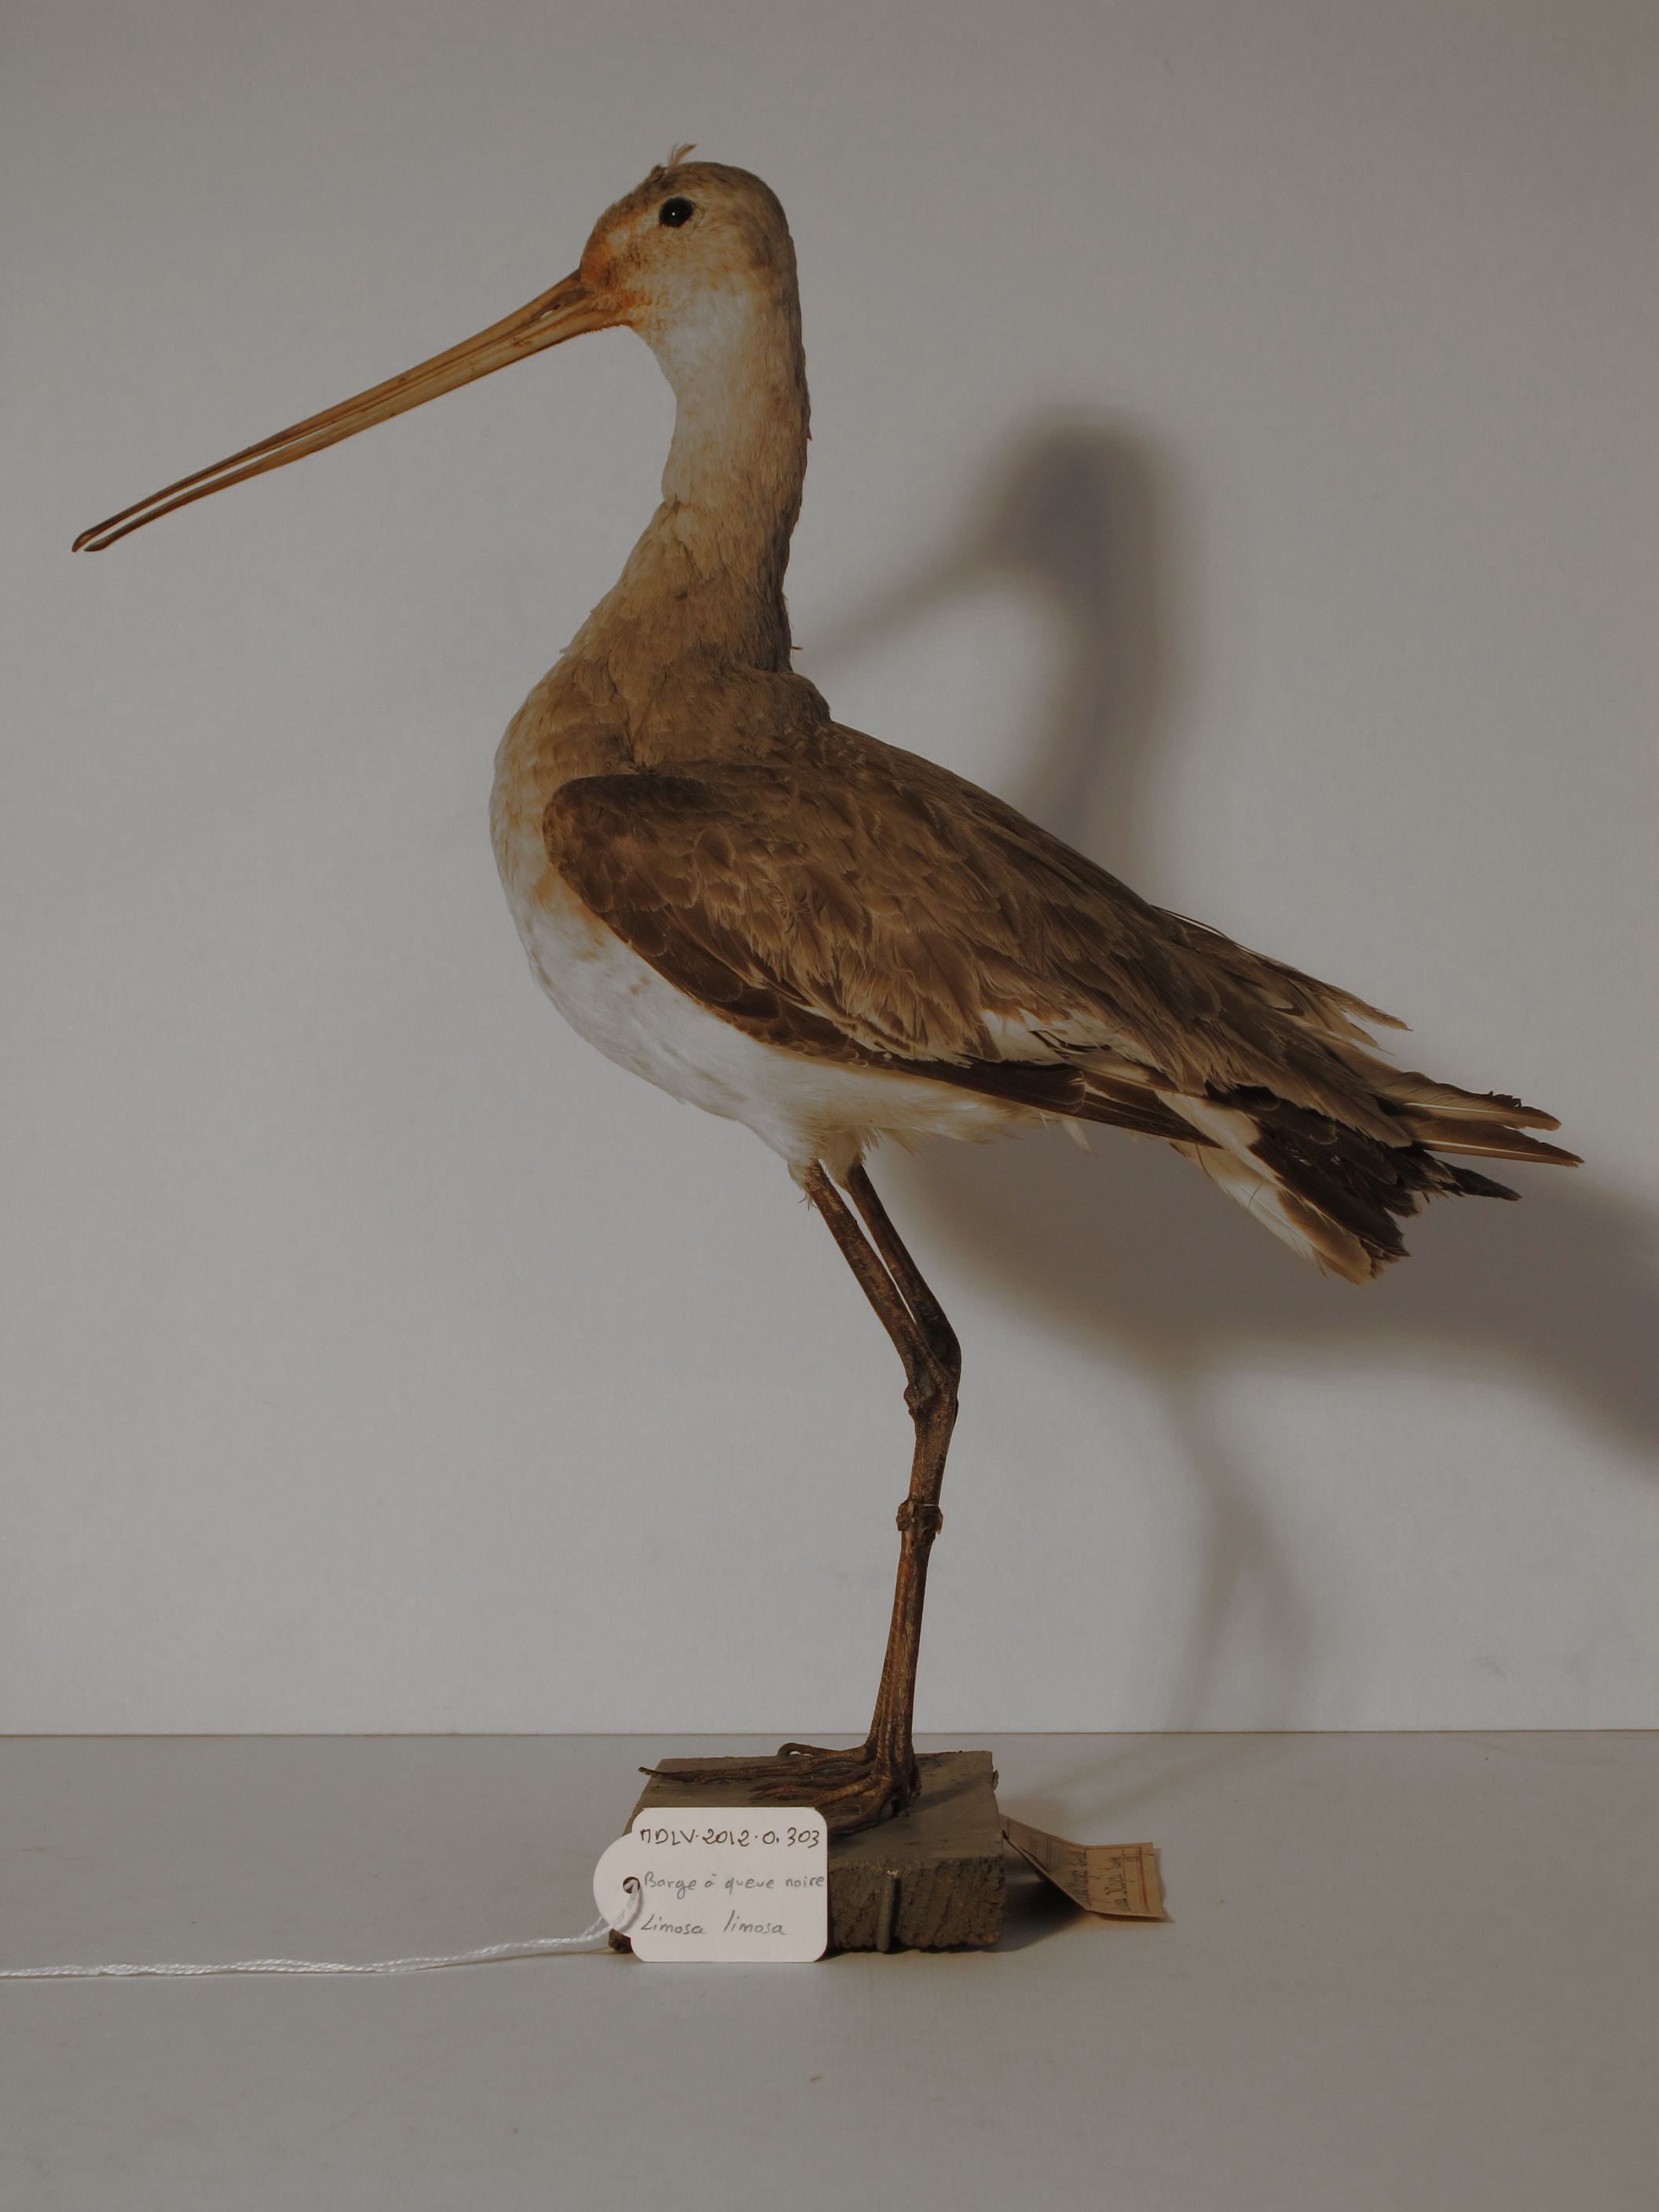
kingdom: Animalia
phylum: Chordata
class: Aves
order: Charadriiformes
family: Scolopacidae
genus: Limosa
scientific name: Limosa limosa
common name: Black-tailed Godwit
